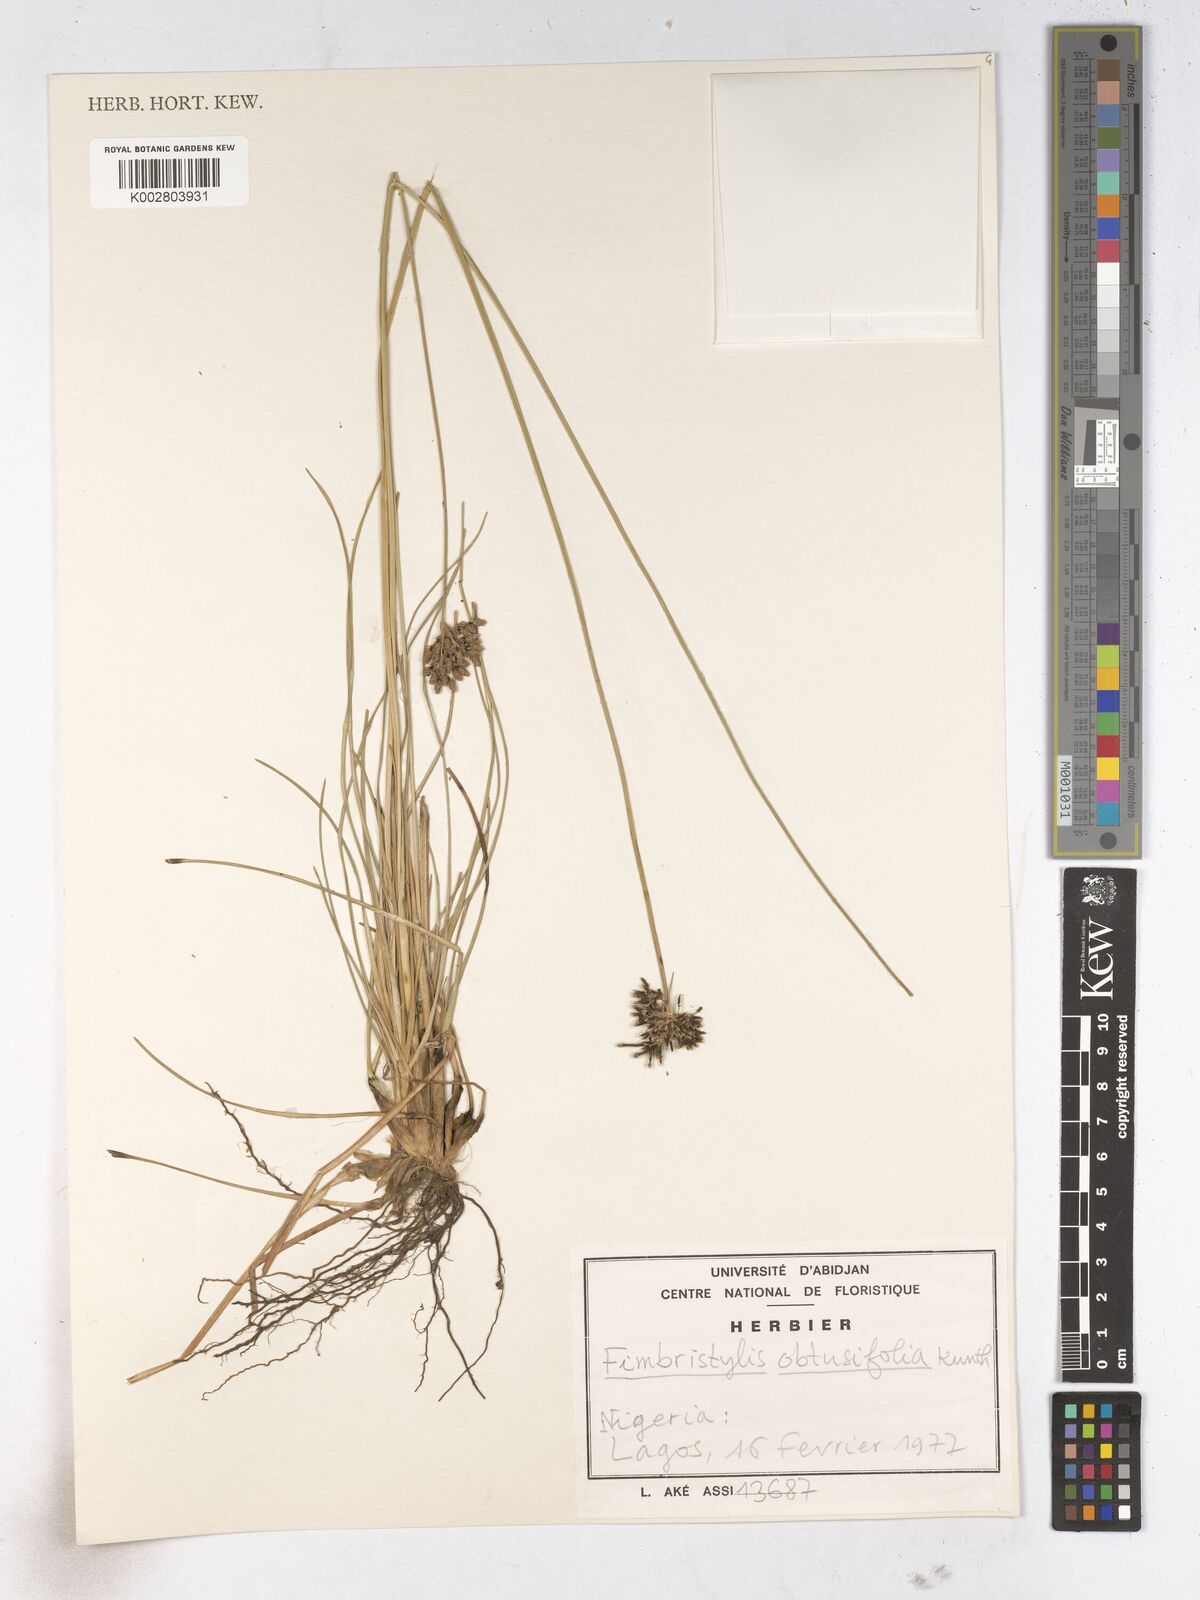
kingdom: Plantae
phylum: Tracheophyta
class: Liliopsida
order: Poales
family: Cyperaceae
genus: Fimbristylis
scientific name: Fimbristylis cymosa
